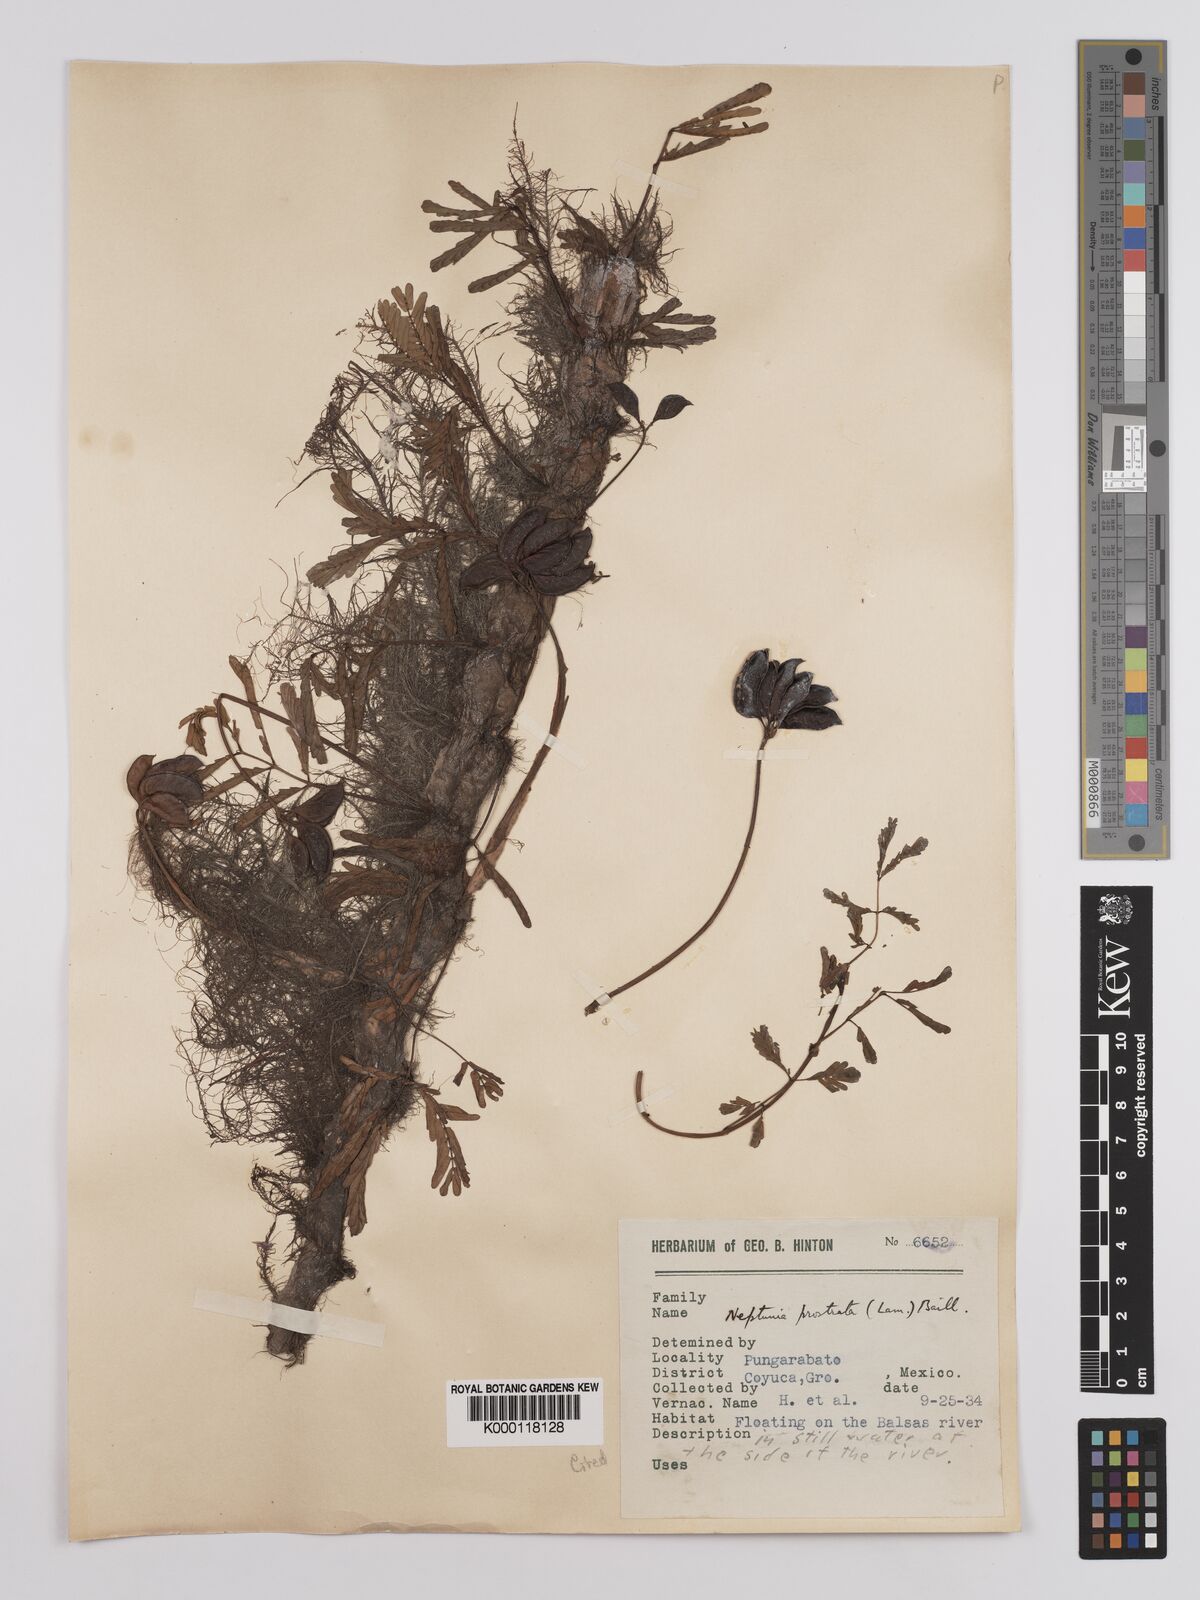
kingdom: Plantae
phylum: Tracheophyta
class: Magnoliopsida
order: Fabales
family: Fabaceae
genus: Neptunia
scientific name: Neptunia
